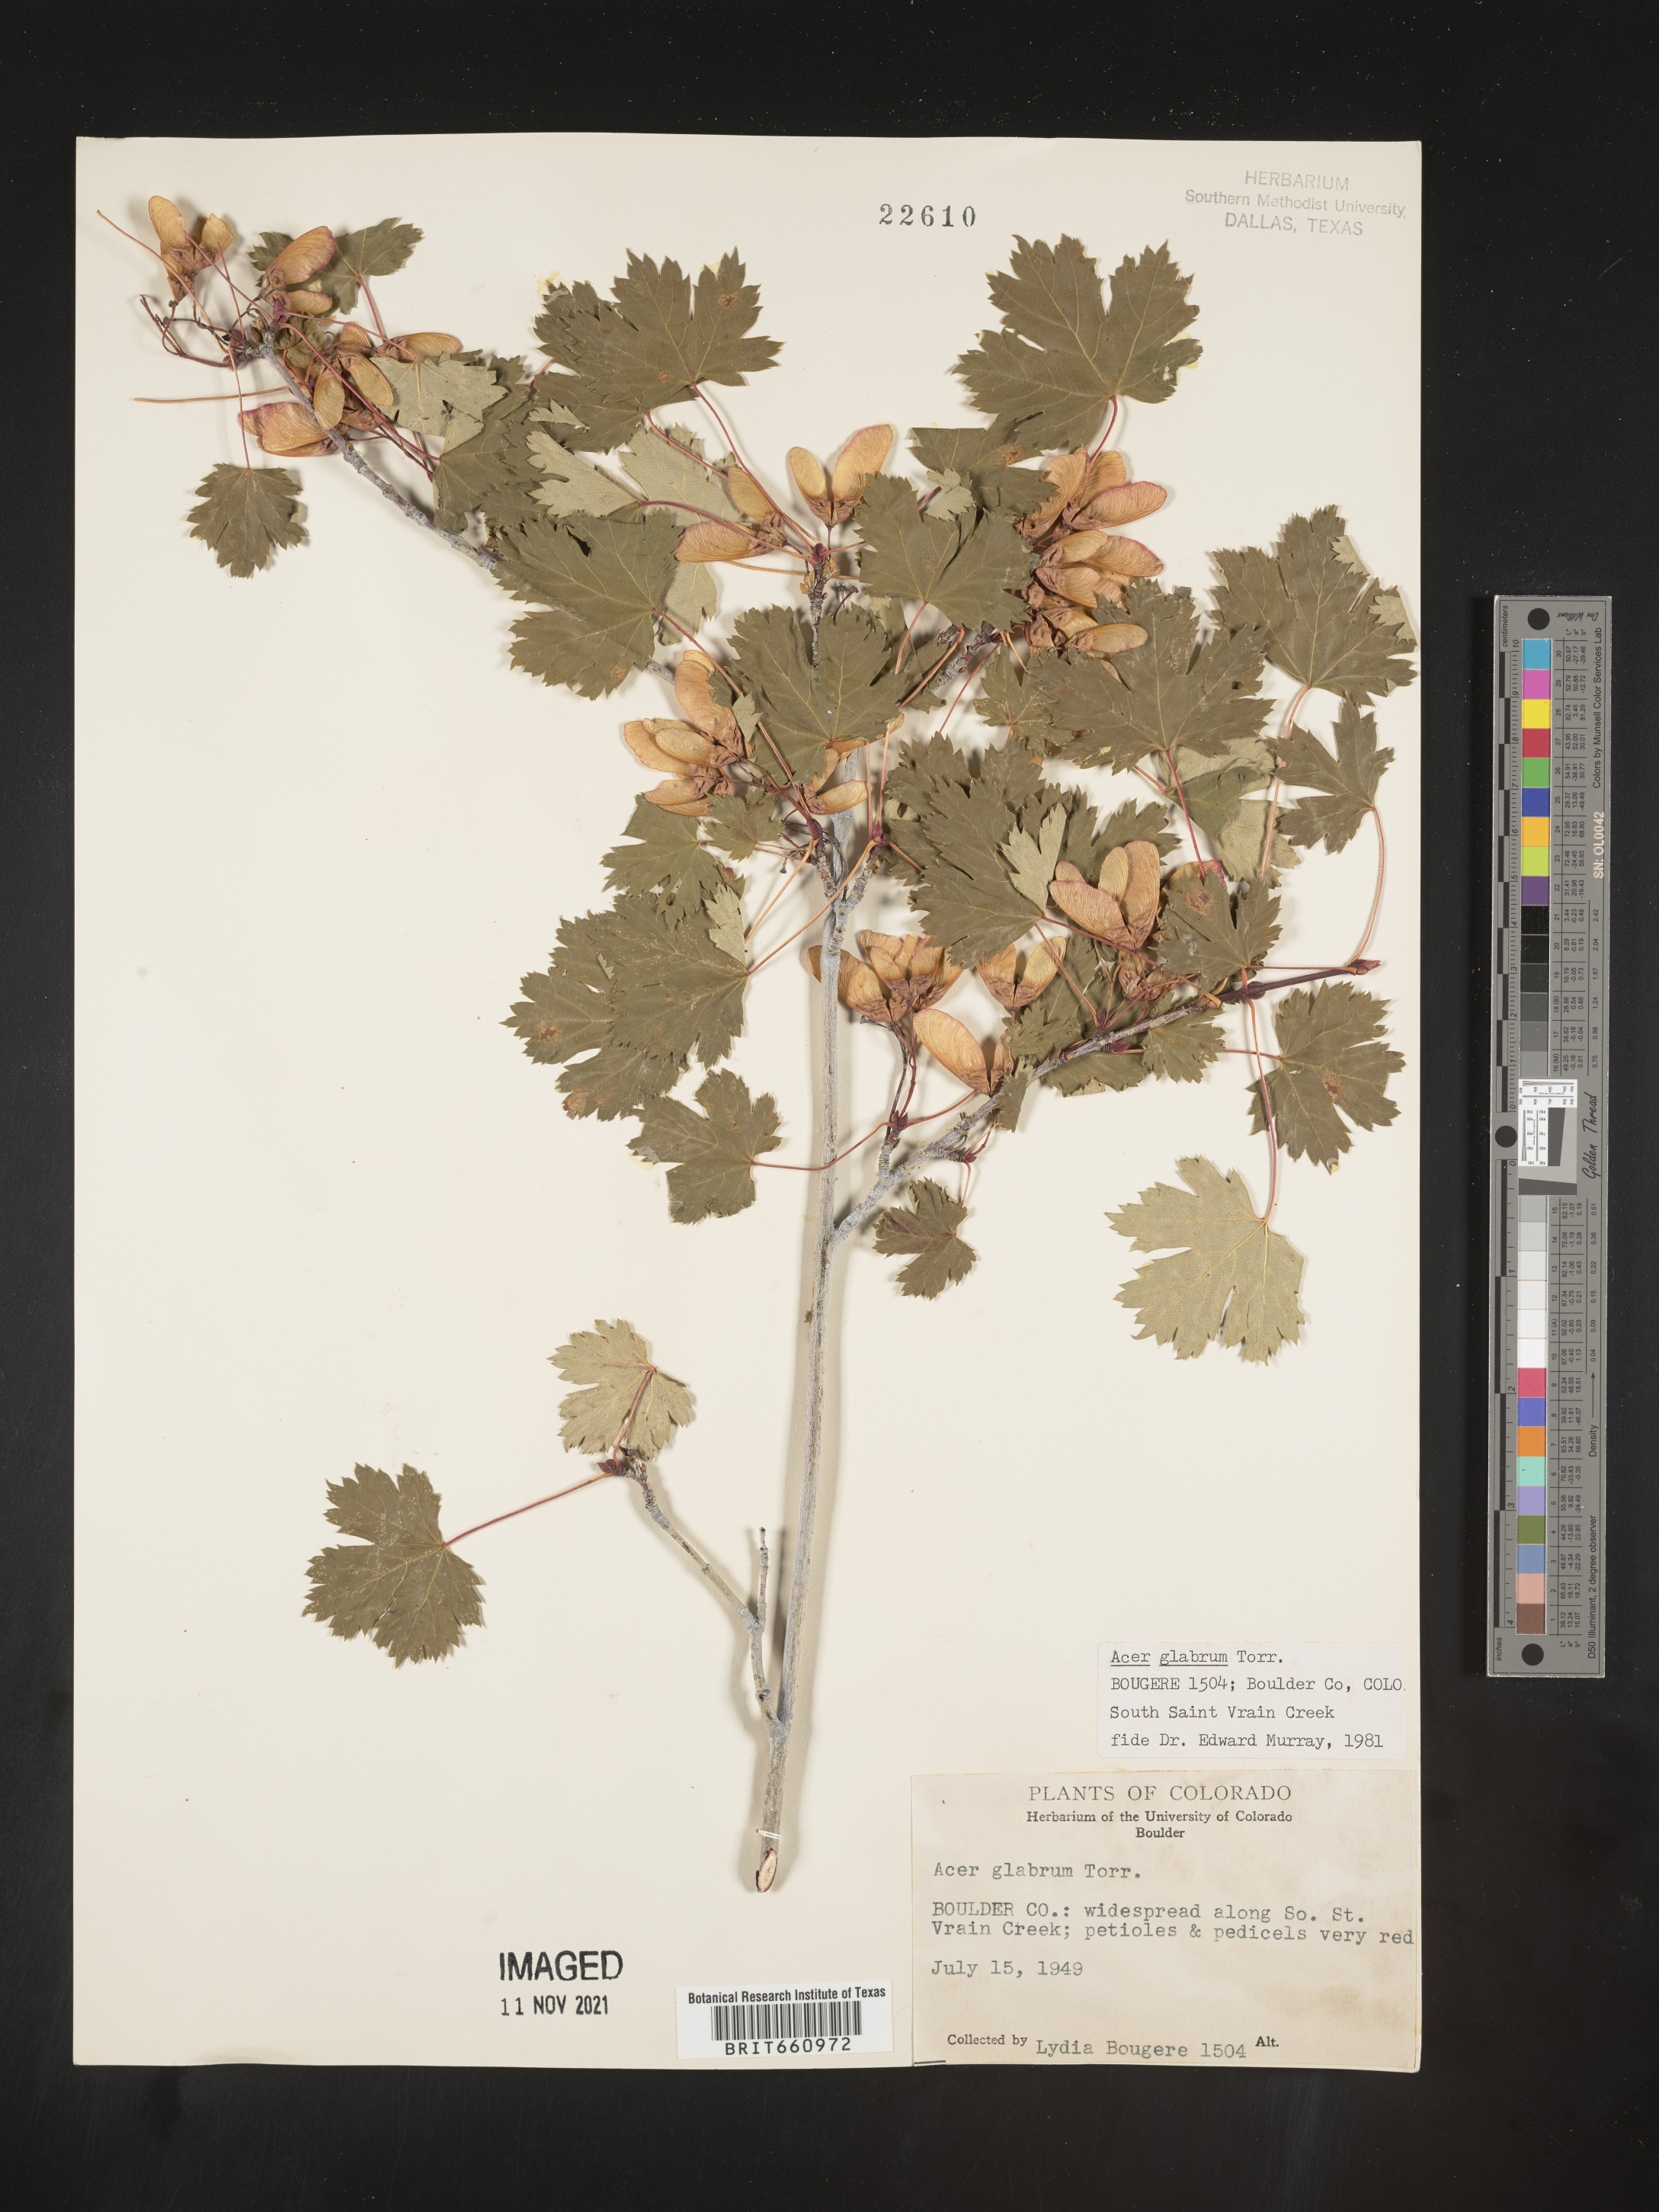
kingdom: Plantae
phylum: Tracheophyta
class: Magnoliopsida
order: Sapindales
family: Sapindaceae
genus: Acer
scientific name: Acer glabrum
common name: Rocky mountain maple
